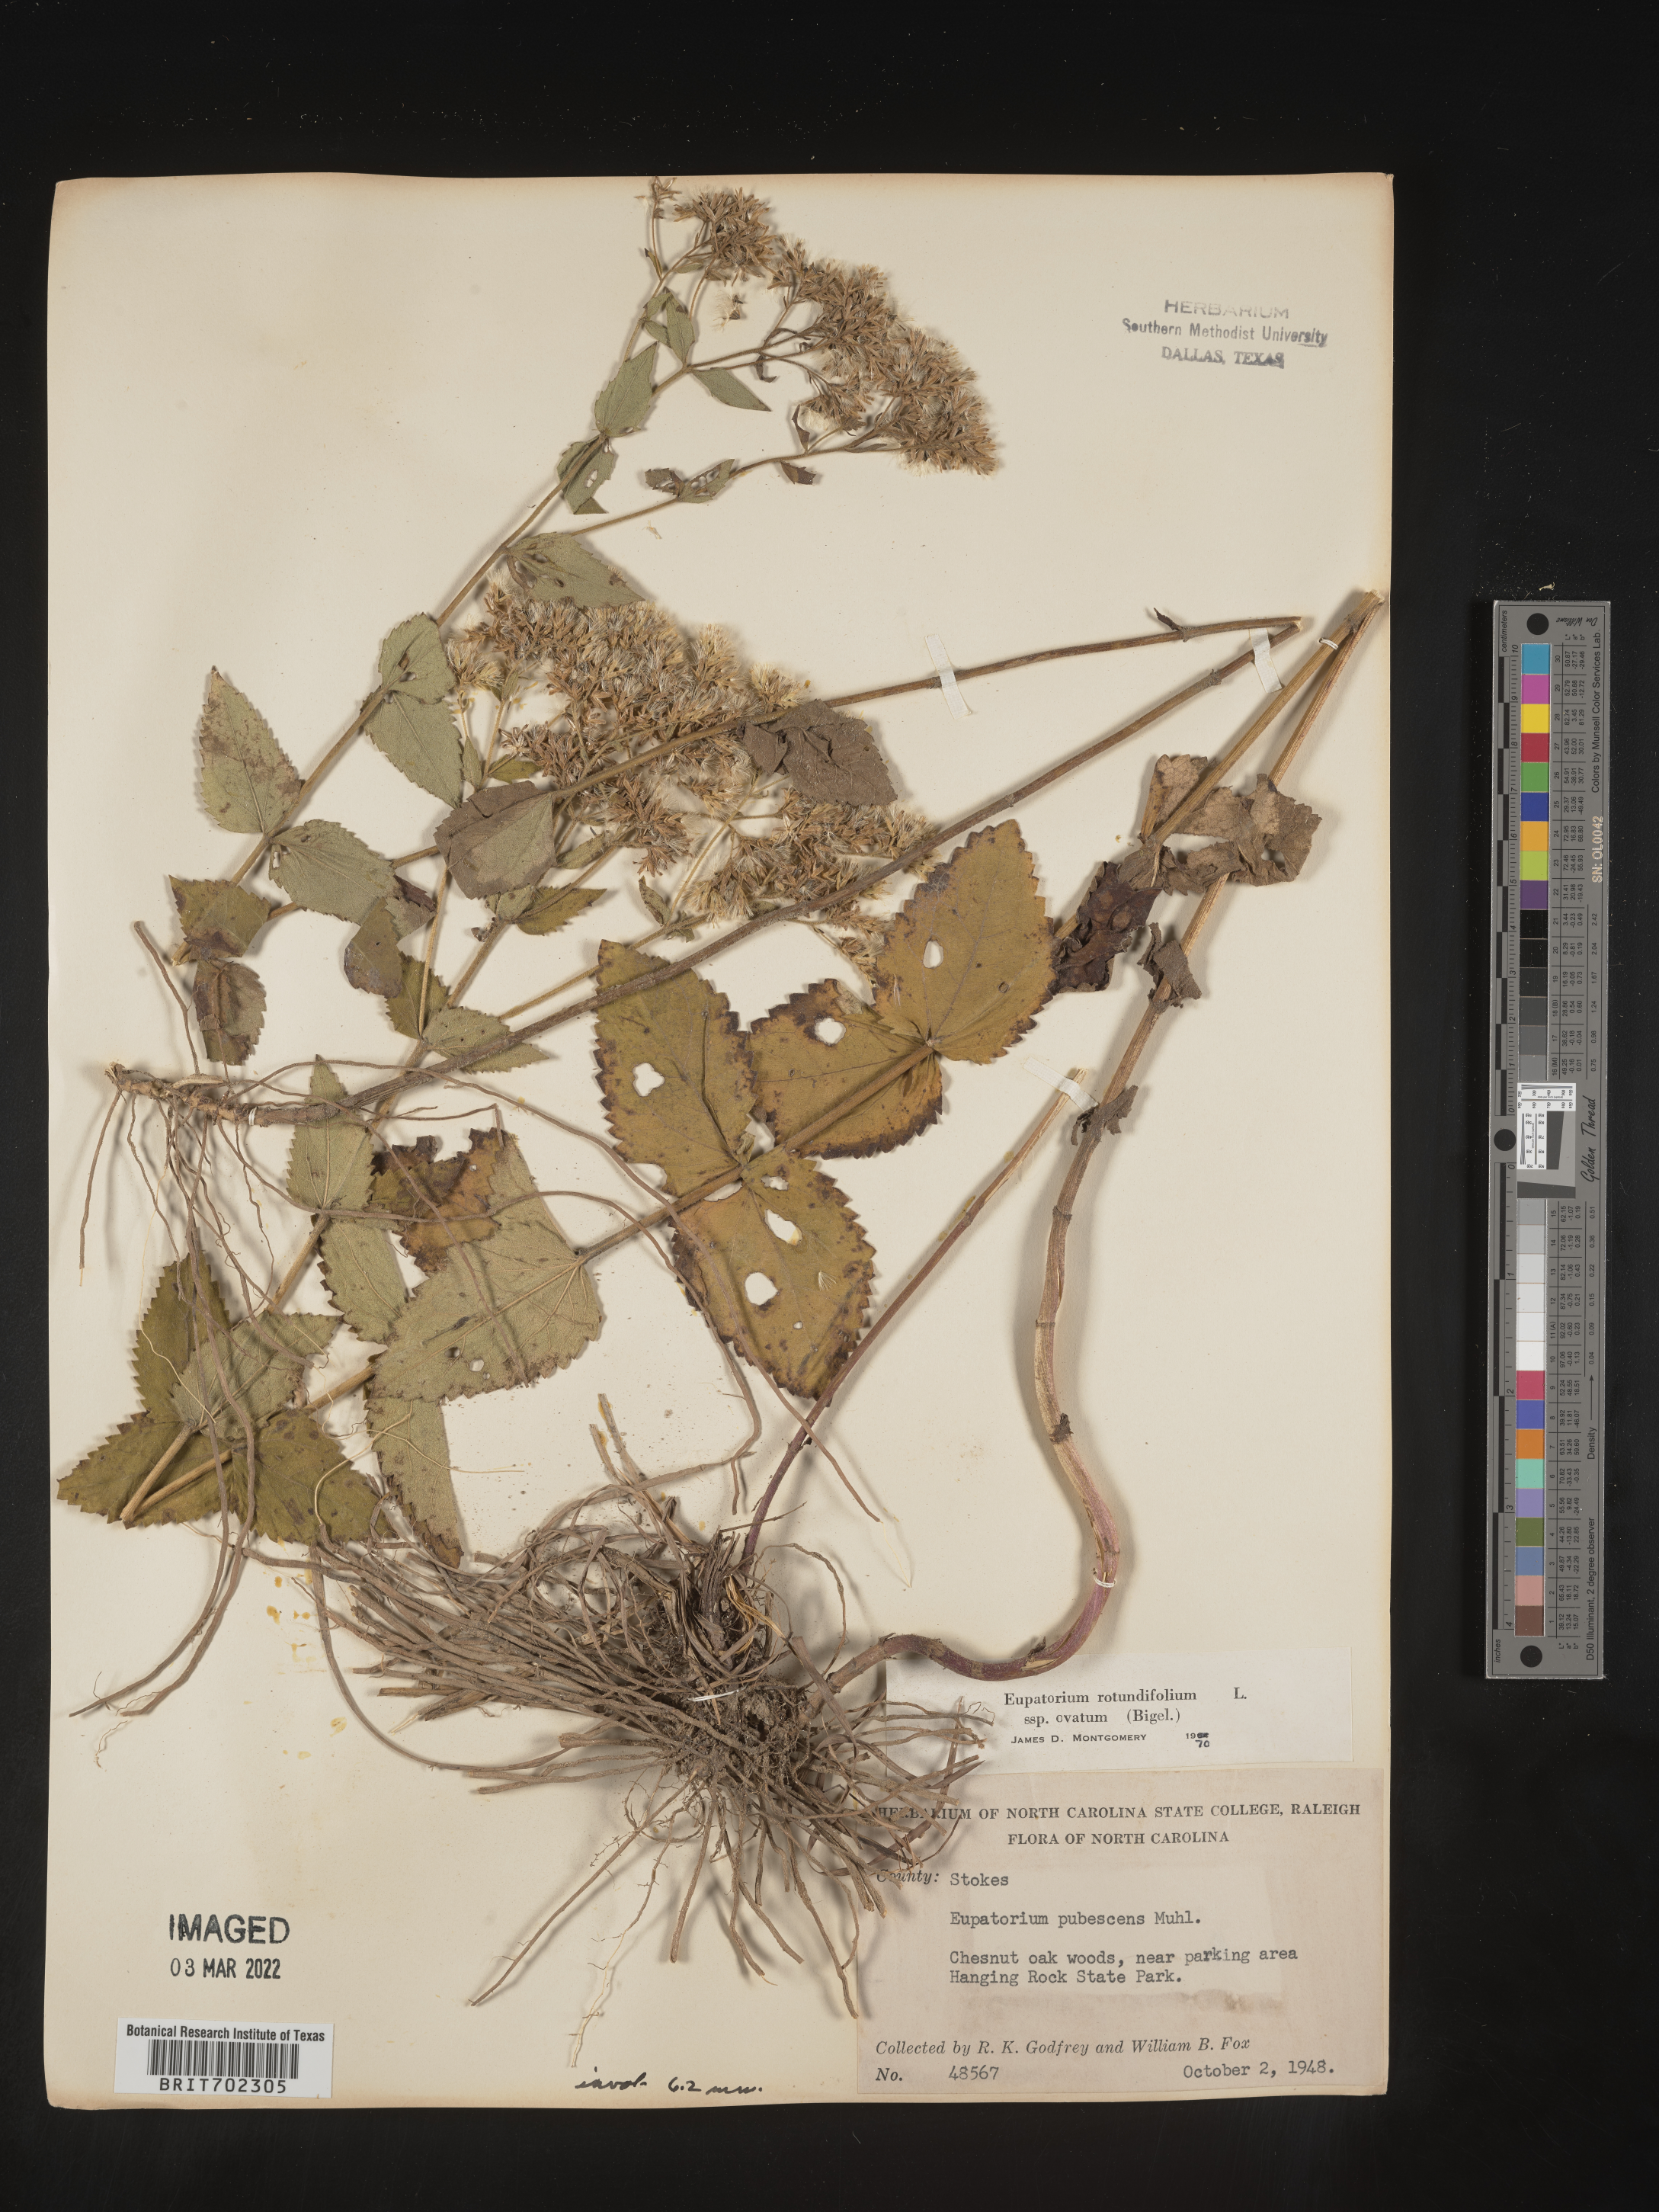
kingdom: Plantae
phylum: Tracheophyta
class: Magnoliopsida
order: Asterales
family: Asteraceae
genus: Eupatorium
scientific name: Eupatorium rotundifolium
